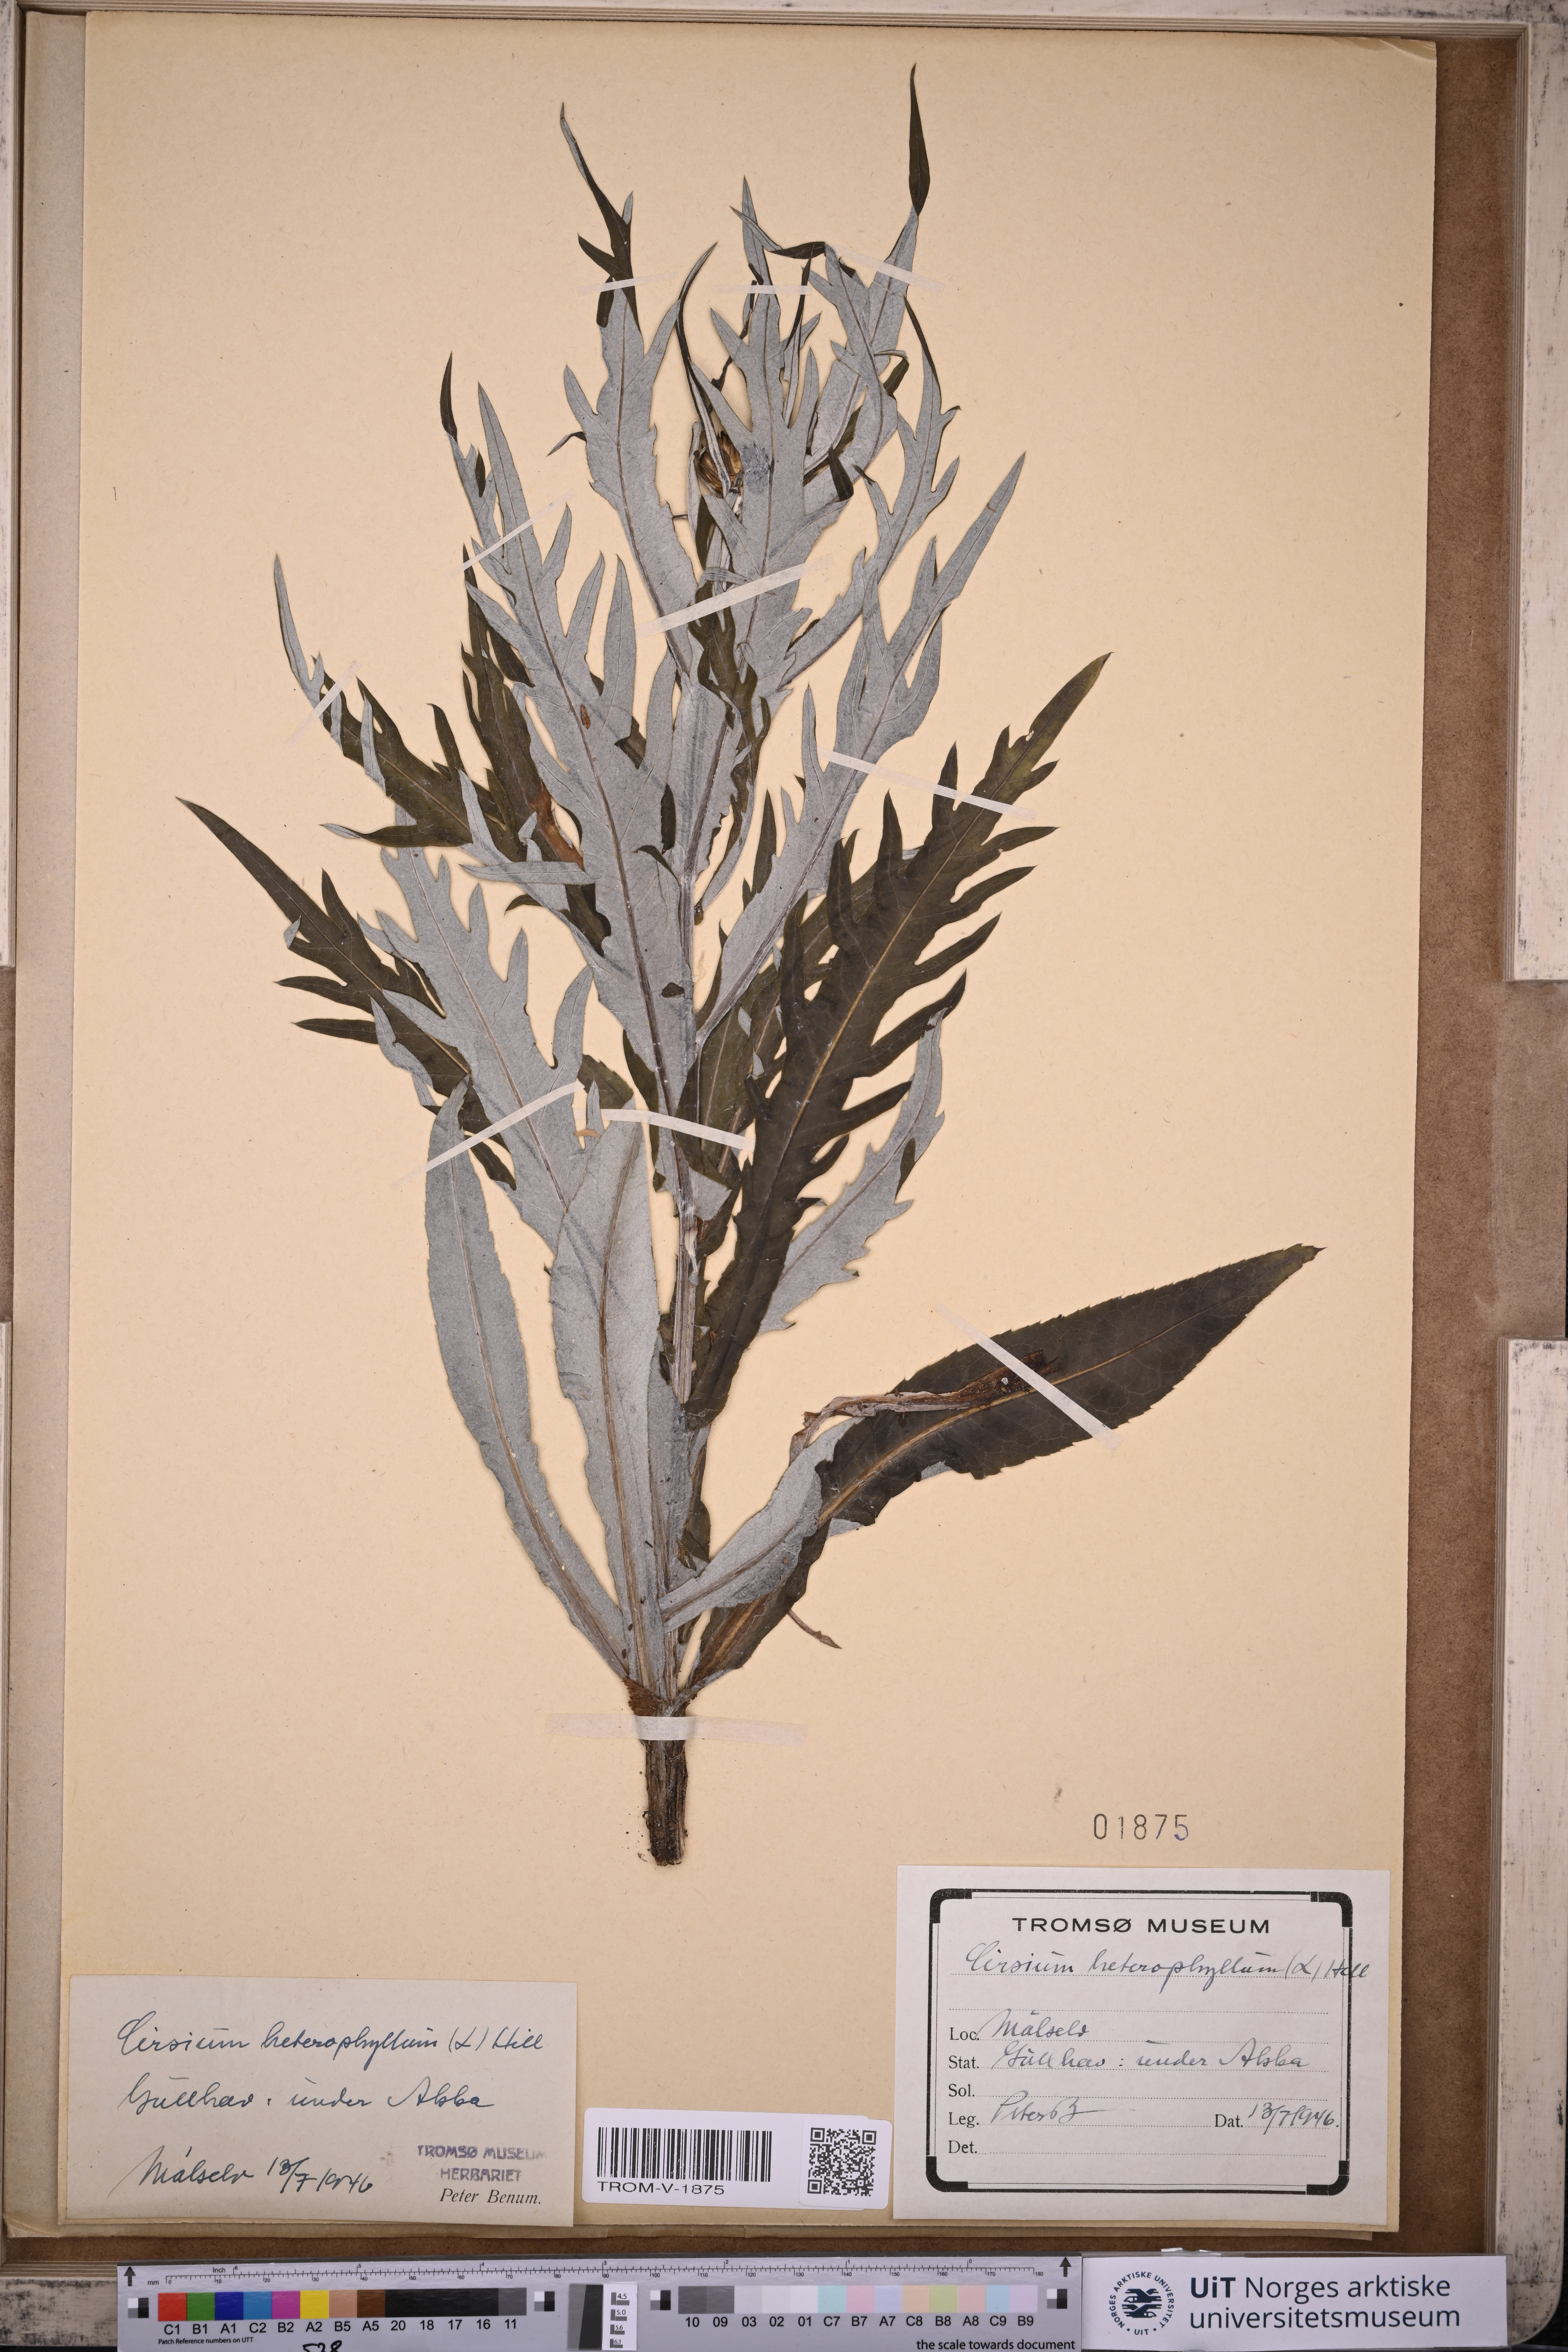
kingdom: Plantae
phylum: Tracheophyta
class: Magnoliopsida
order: Asterales
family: Asteraceae
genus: Cirsium
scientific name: Cirsium heterophyllum
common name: Melancholy thistle
